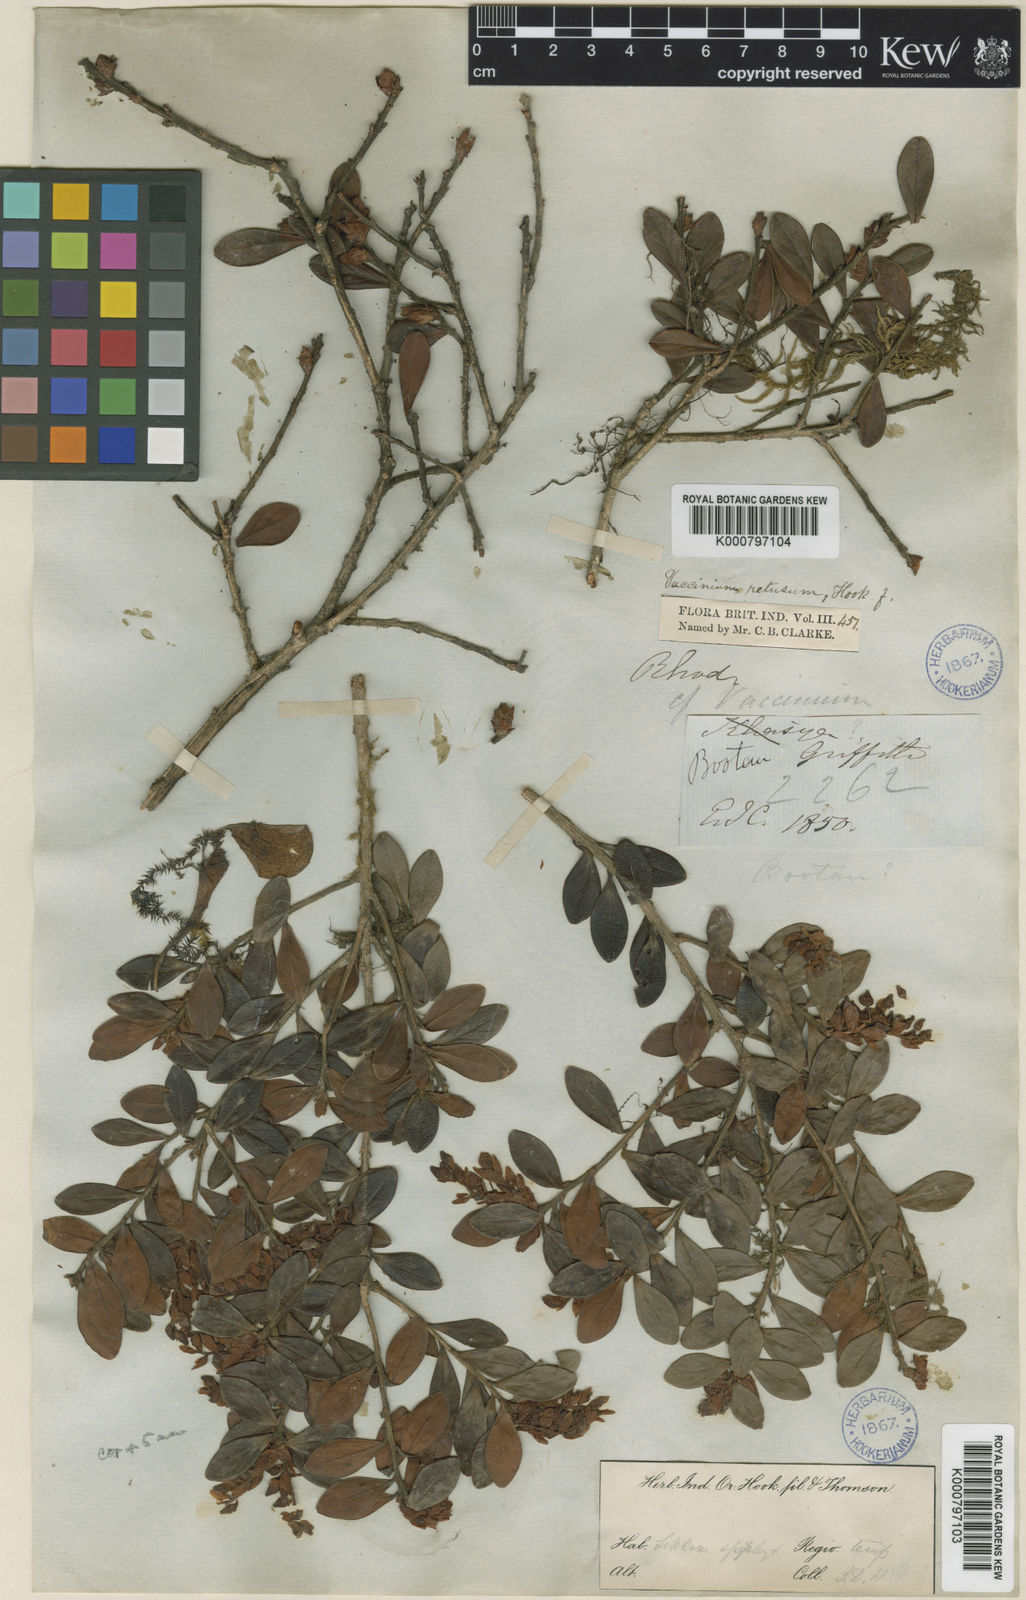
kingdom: Plantae
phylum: Tracheophyta
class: Magnoliopsida
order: Ericales
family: Ericaceae
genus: Vaccinium
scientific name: Vaccinium retusum
